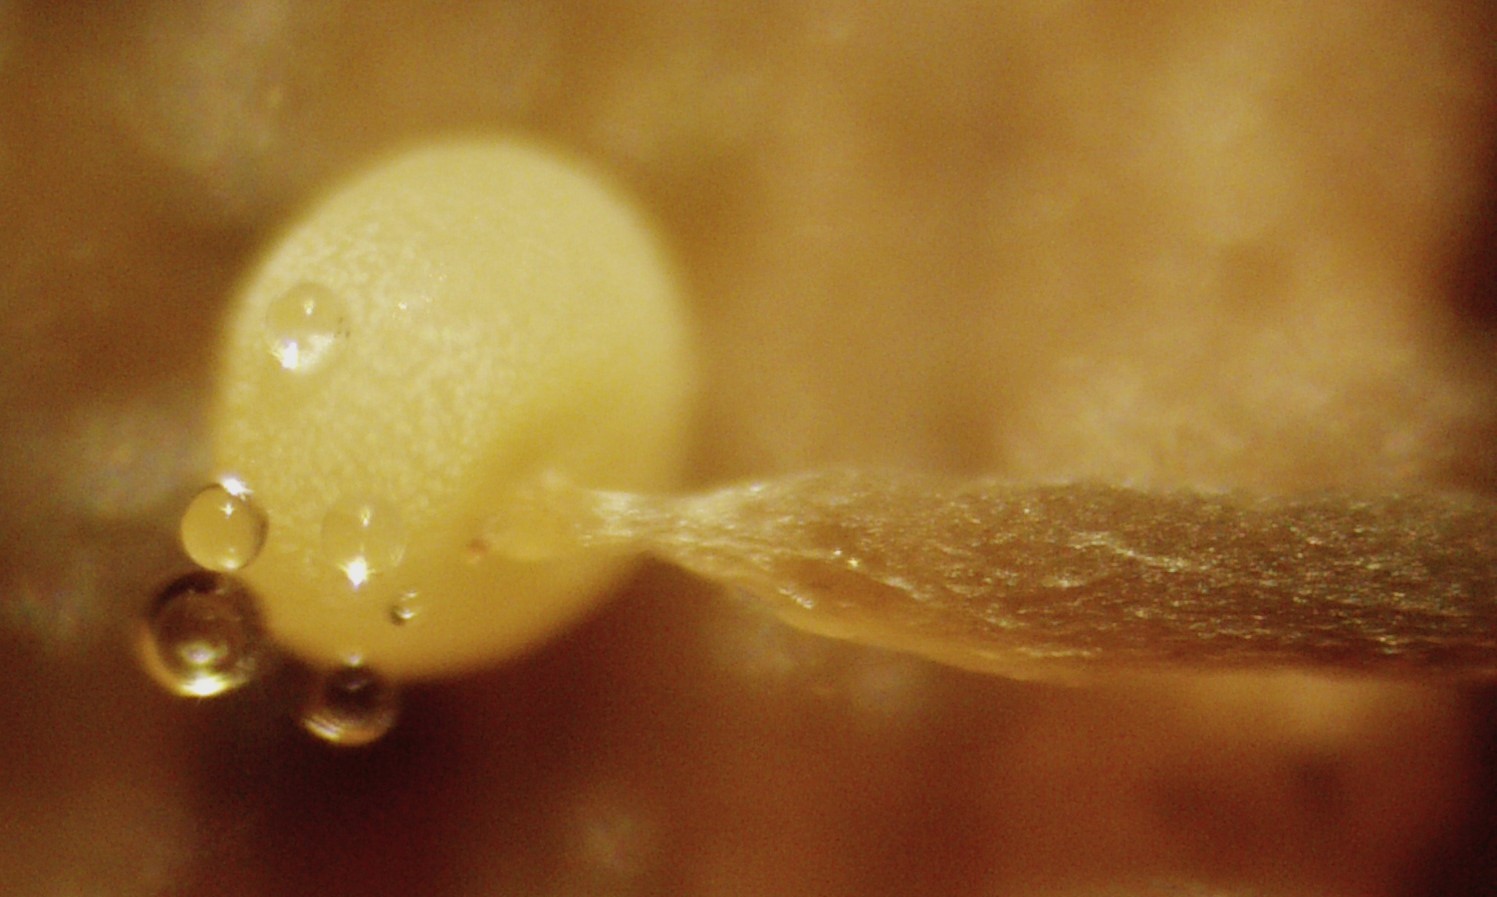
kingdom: Protozoa
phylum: Mycetozoa
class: Myxomycetes
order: Physarales
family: Physaraceae
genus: Physarum
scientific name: Physarum
